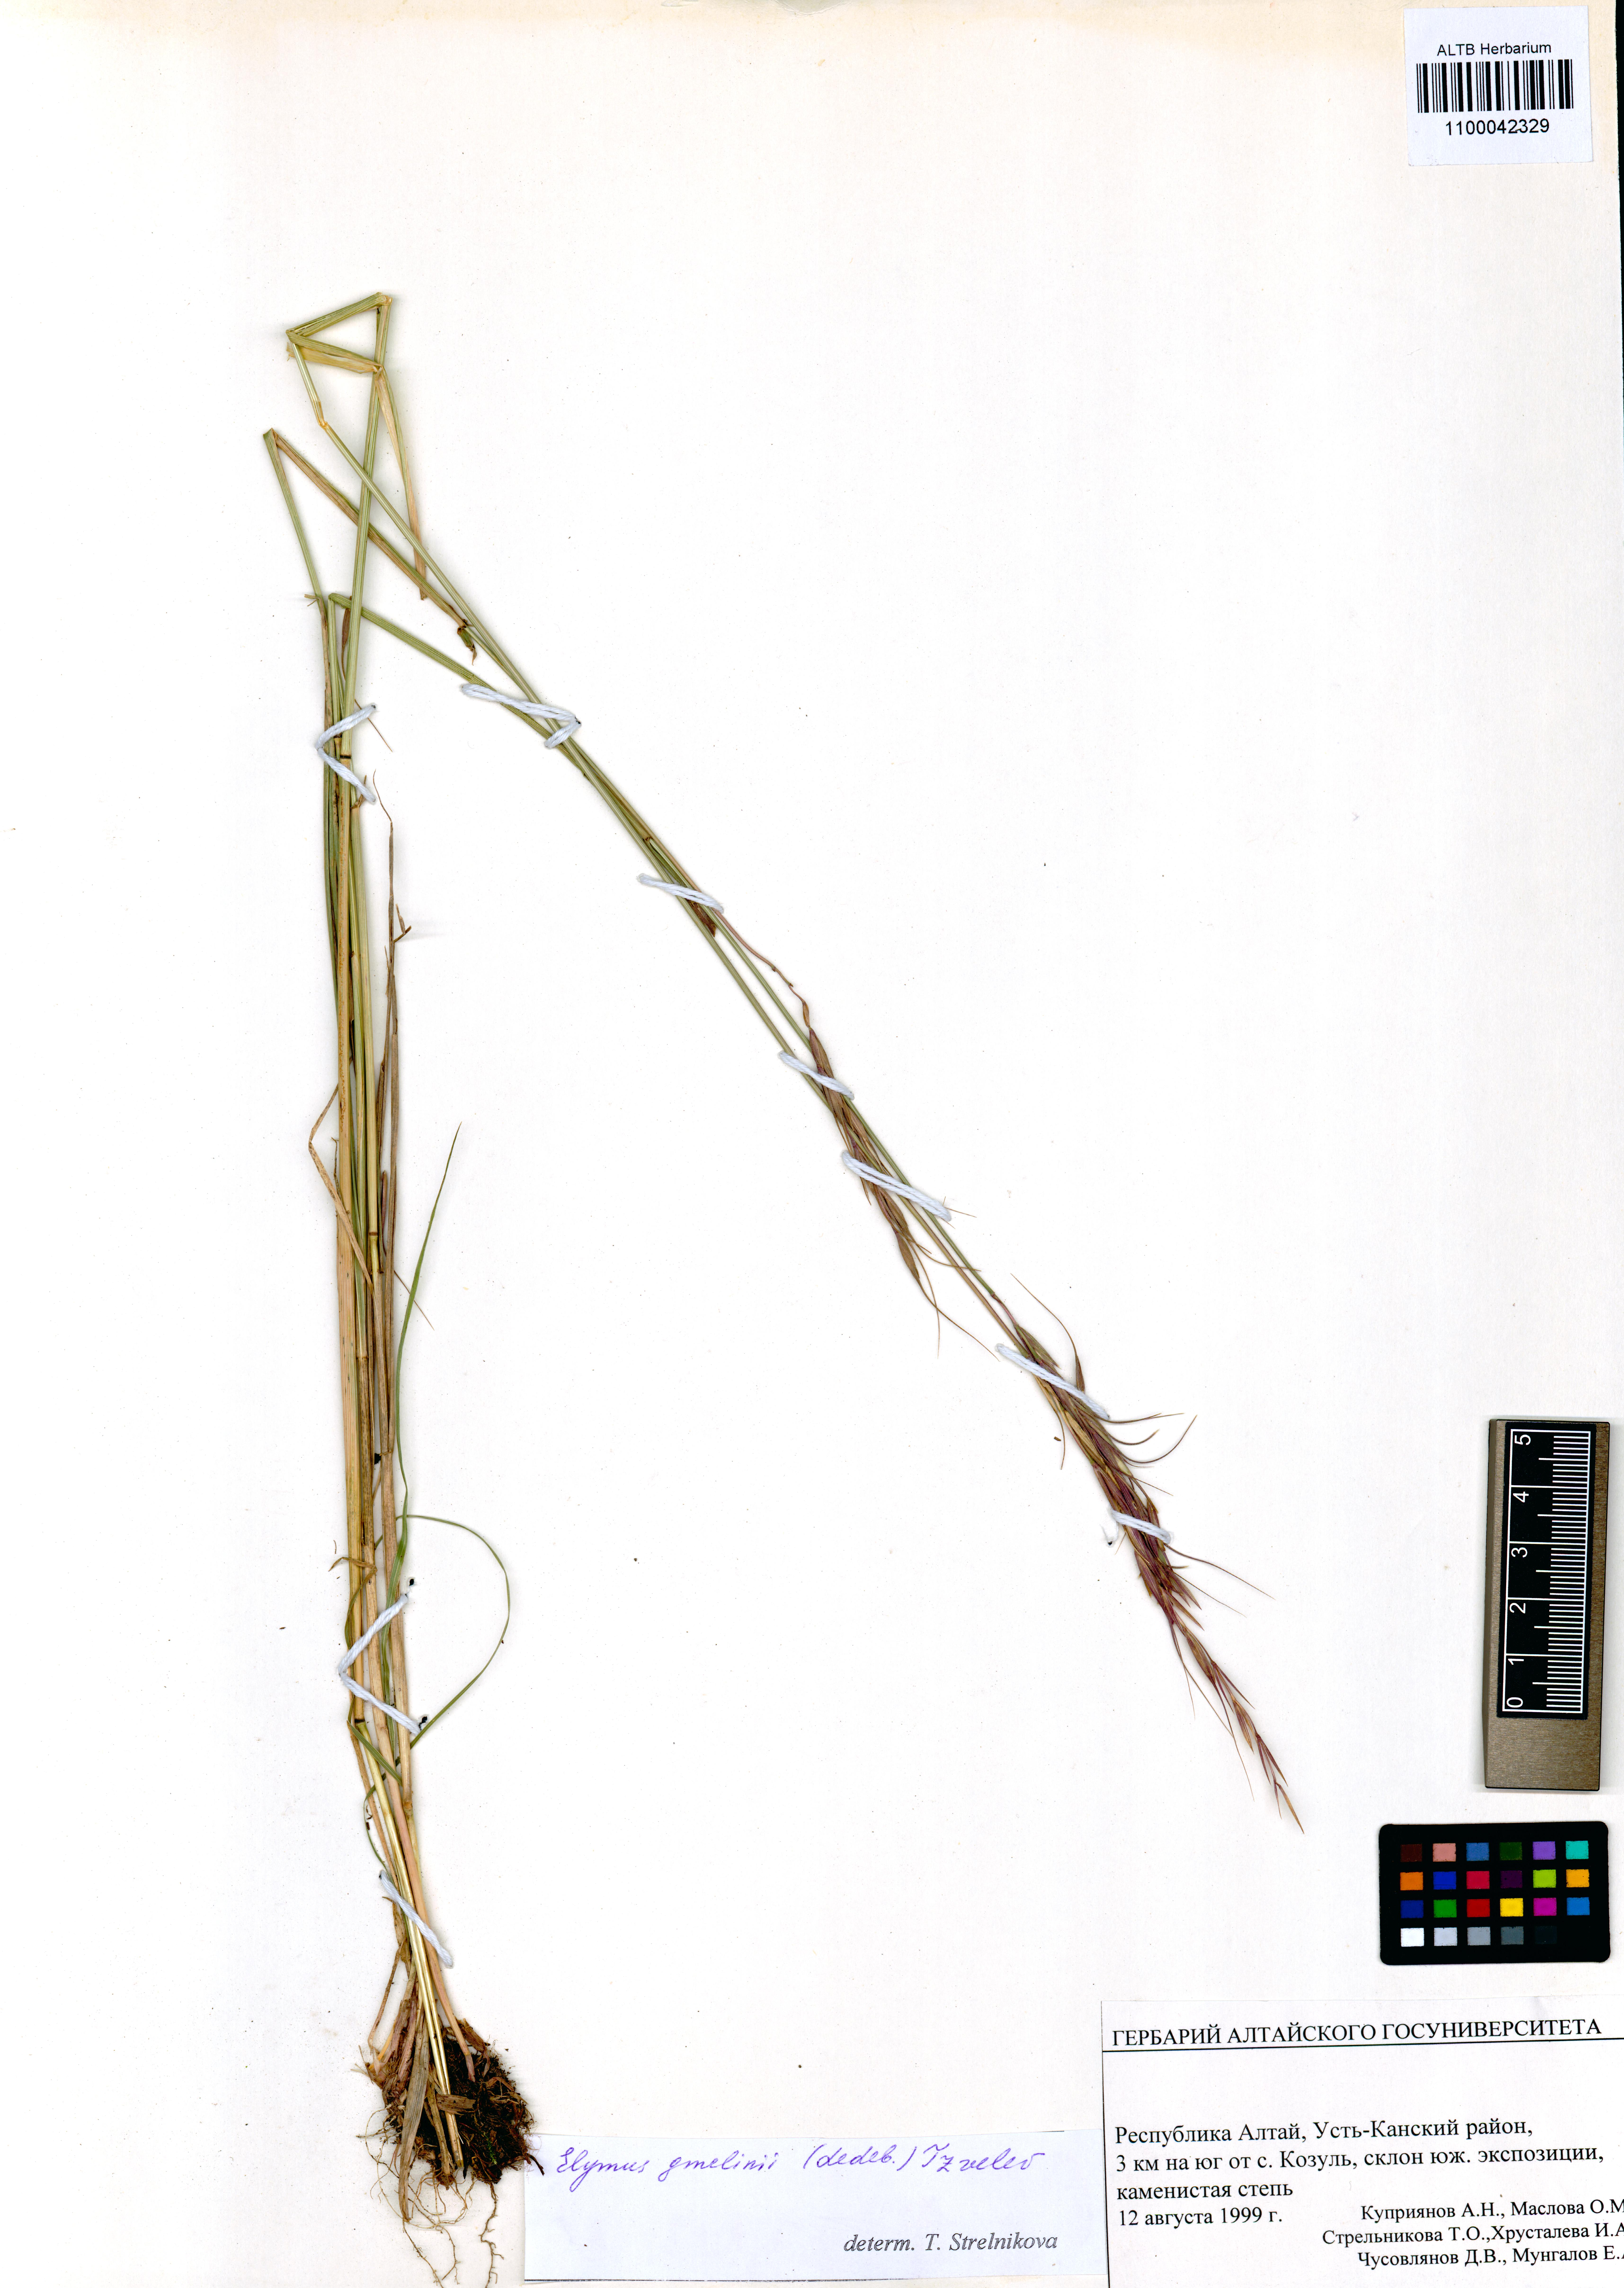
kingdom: Plantae
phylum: Tracheophyta
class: Liliopsida
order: Poales
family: Poaceae
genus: Elymus
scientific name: Elymus gmelinii
